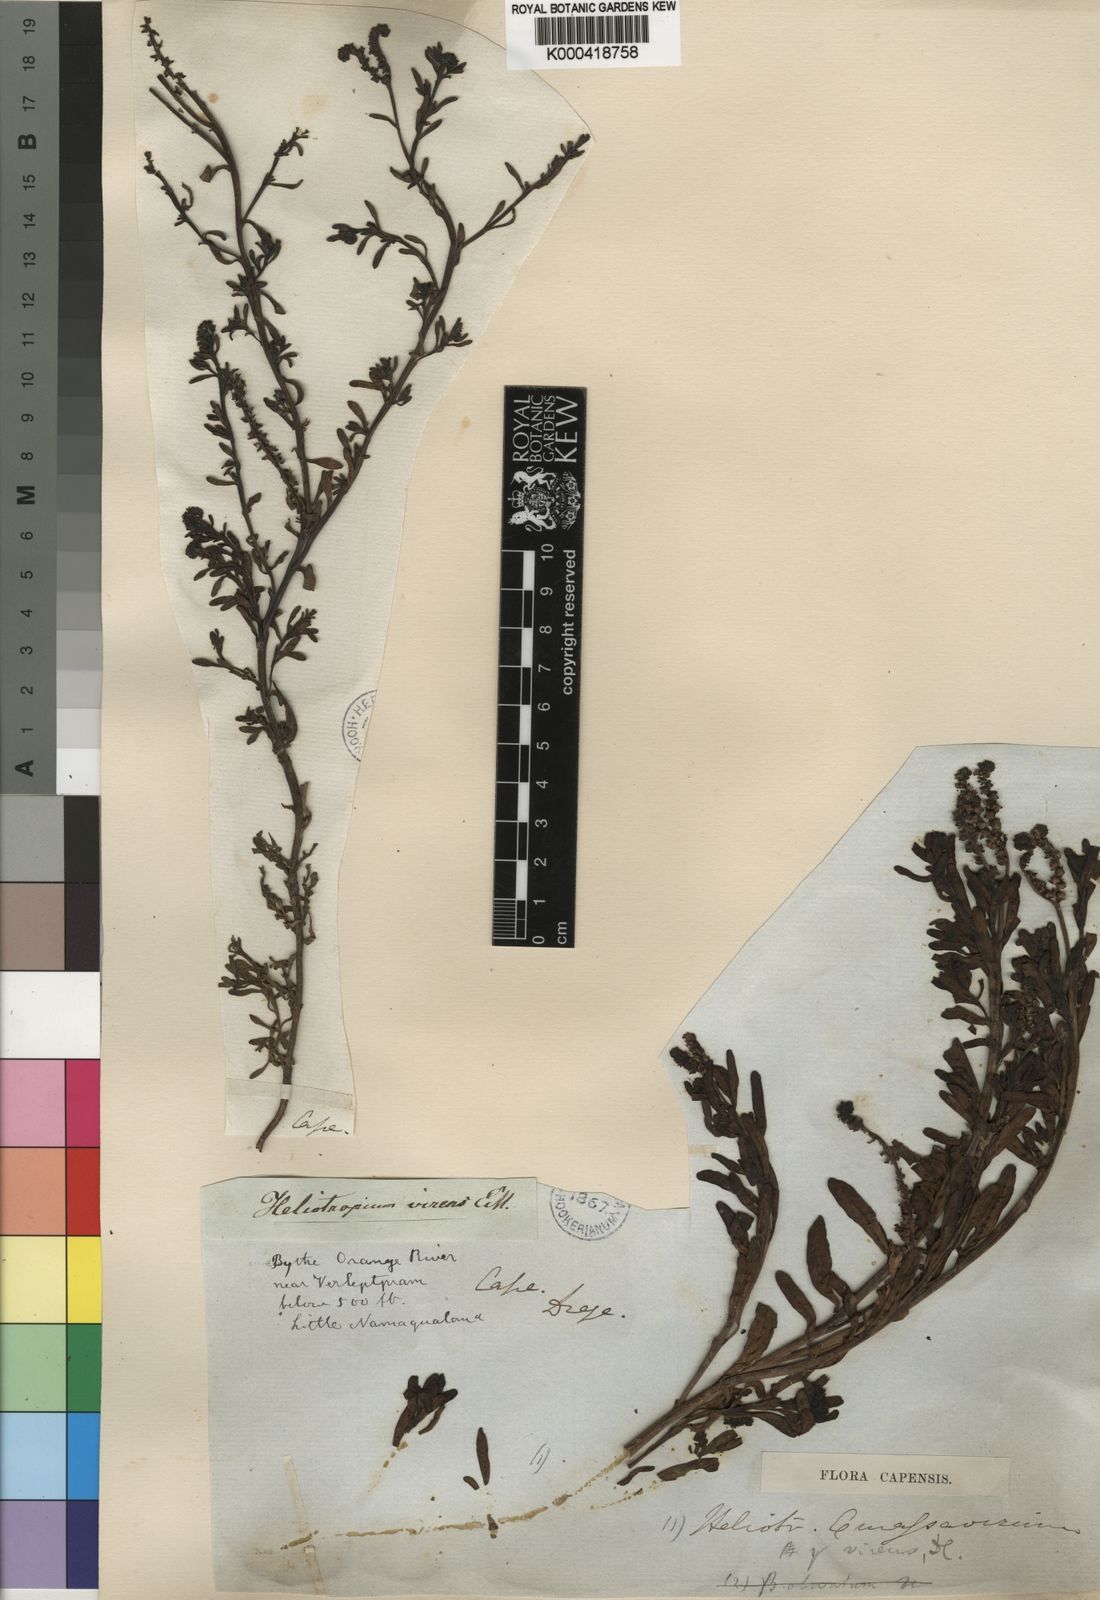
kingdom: Plantae
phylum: Tracheophyta
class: Magnoliopsida
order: Boraginales
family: Heliotropiaceae
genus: Heliotropium
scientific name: Heliotropium curassavicum
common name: Seaside heliotrope
